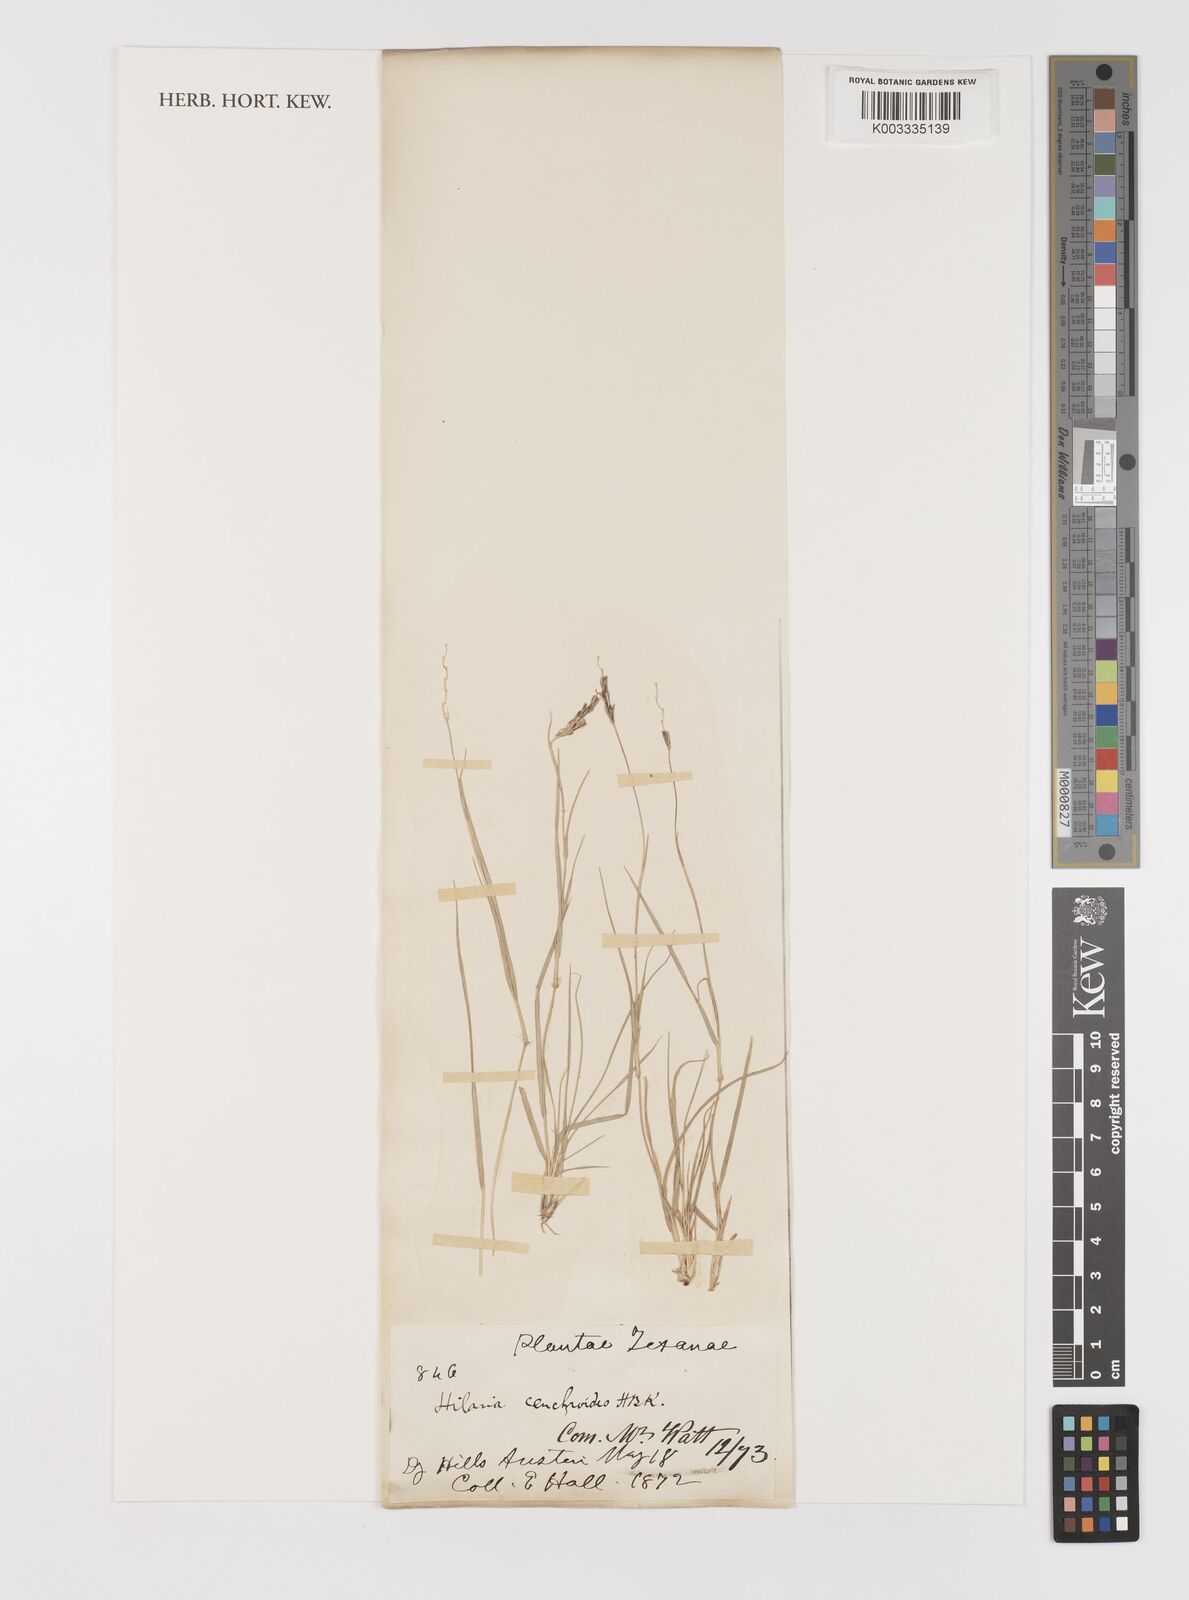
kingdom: Plantae
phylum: Tracheophyta
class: Liliopsida
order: Poales
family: Poaceae
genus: Hilaria
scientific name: Hilaria swallenii
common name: Swallen's curly-mesquite
